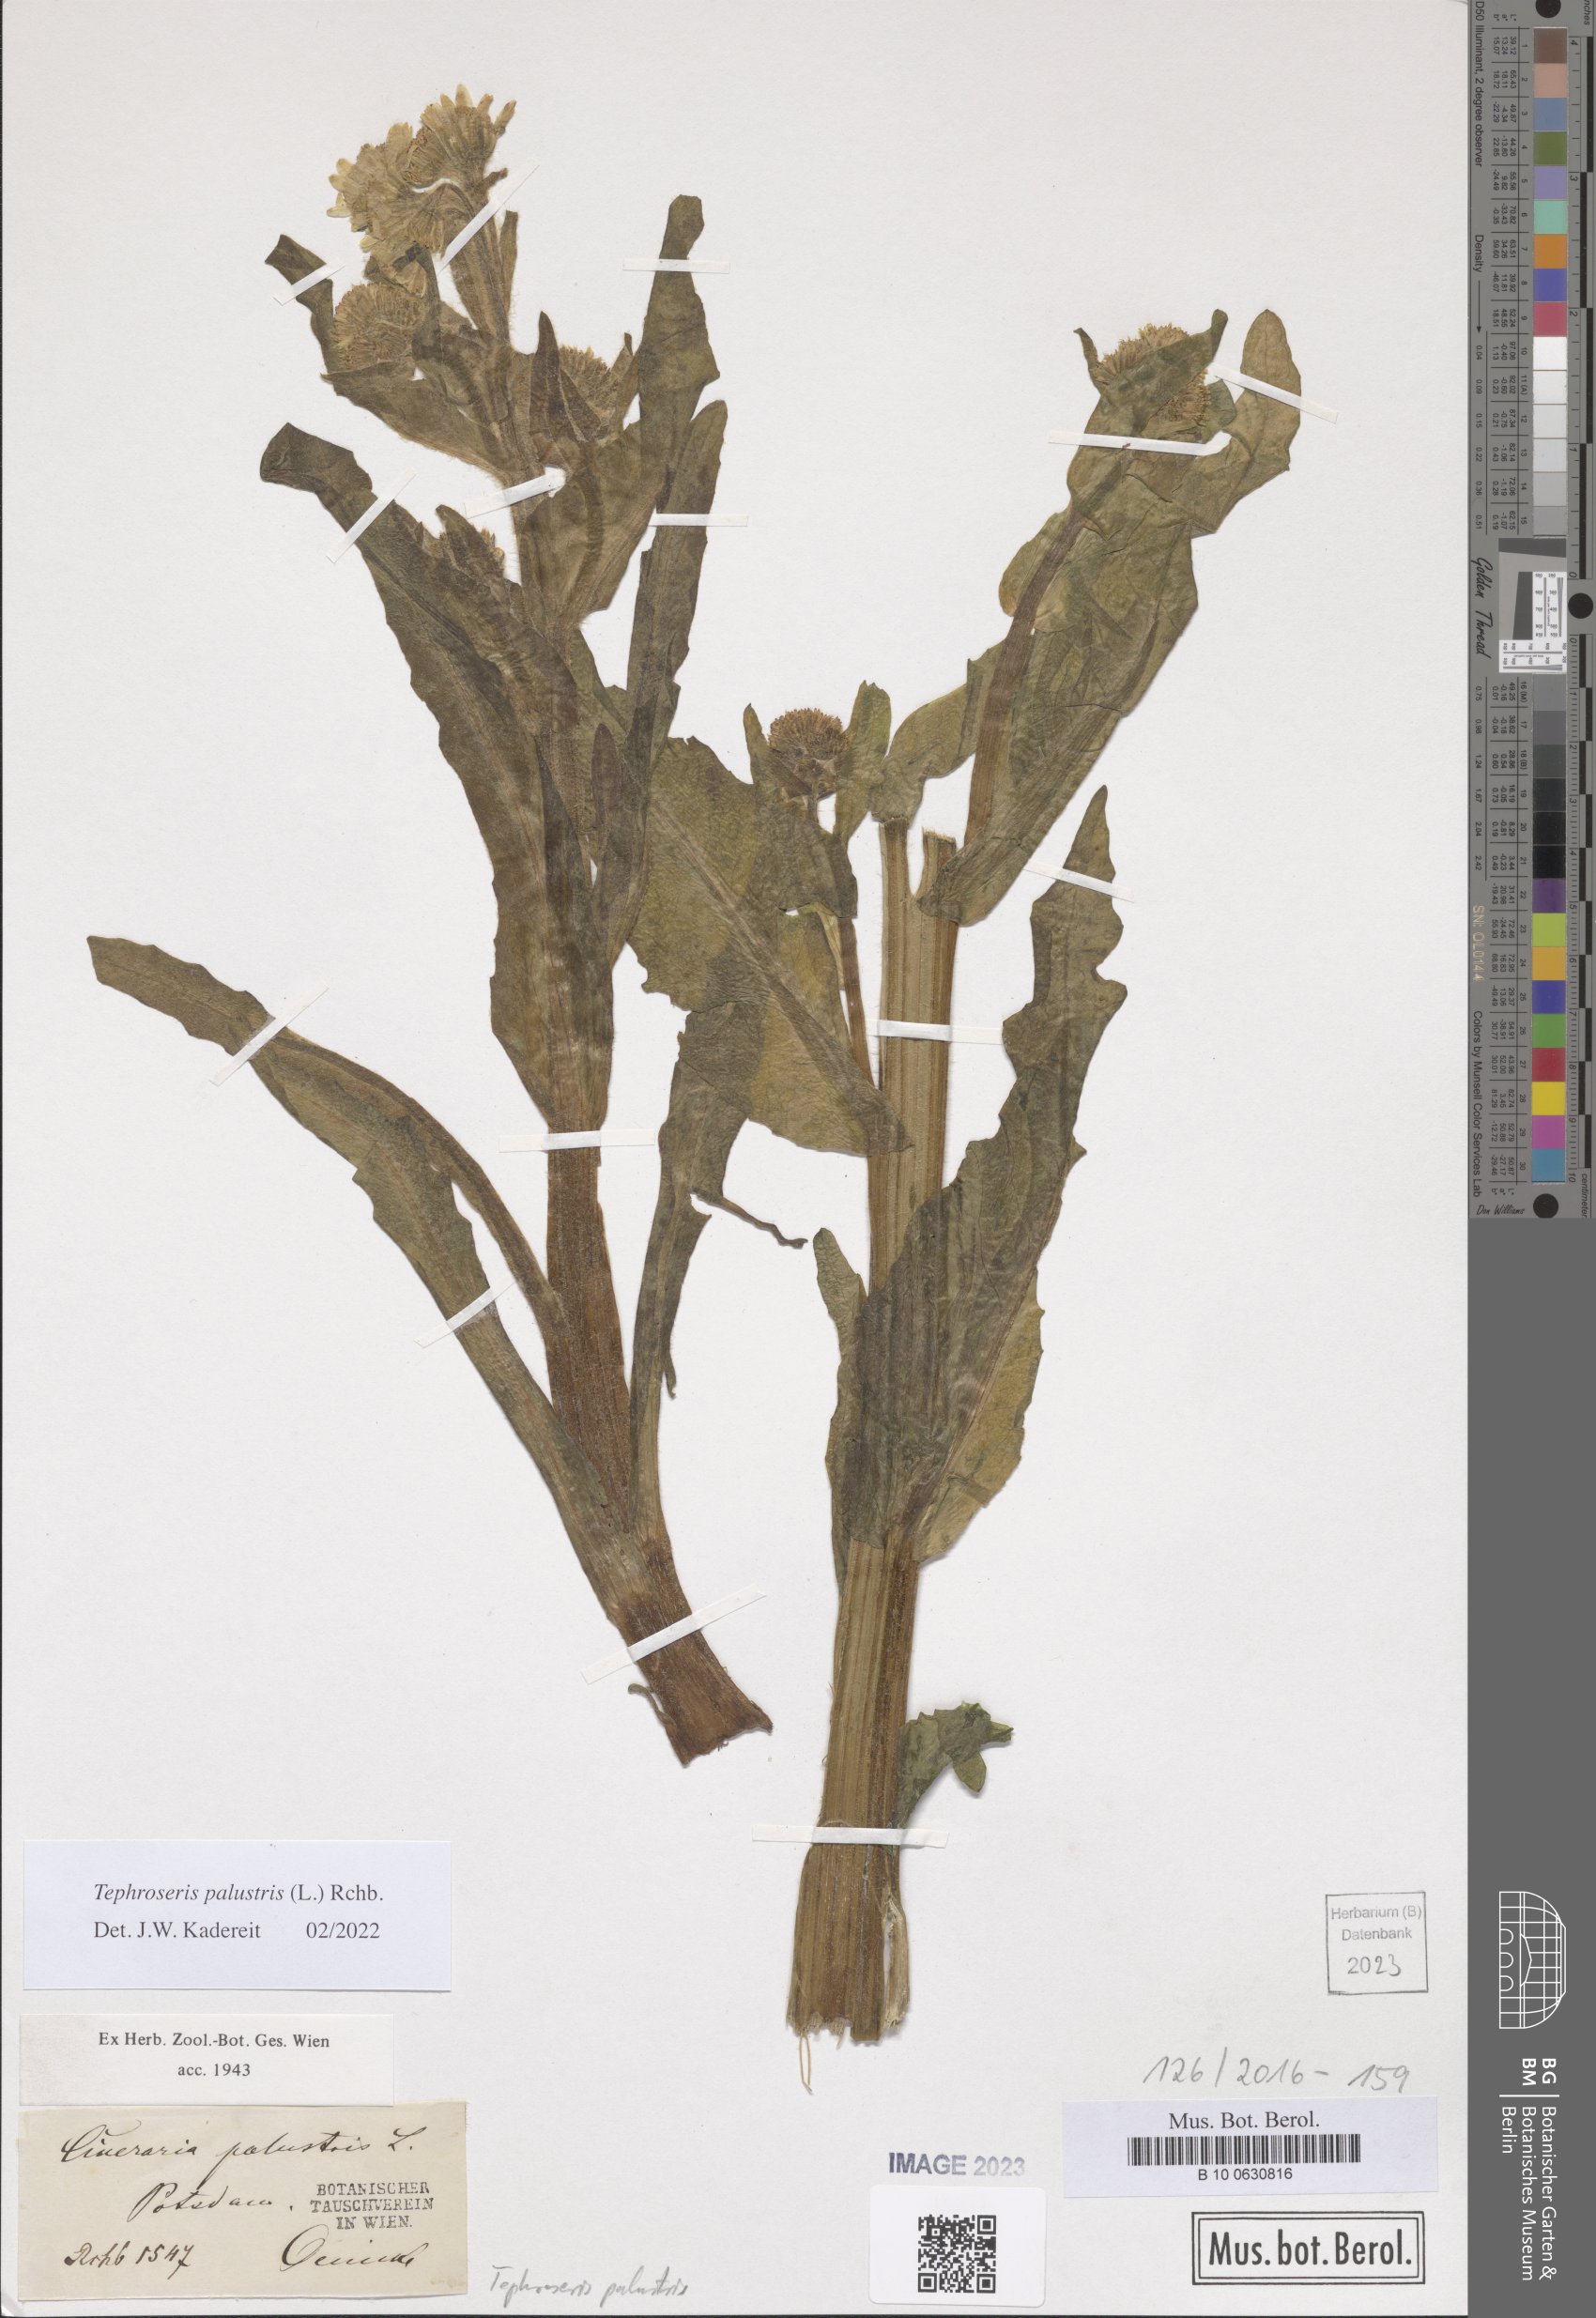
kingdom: Plantae
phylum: Tracheophyta
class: Magnoliopsida
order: Asterales
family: Asteraceae
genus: Tephroseris
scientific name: Tephroseris palustris
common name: Marsh fleawort
